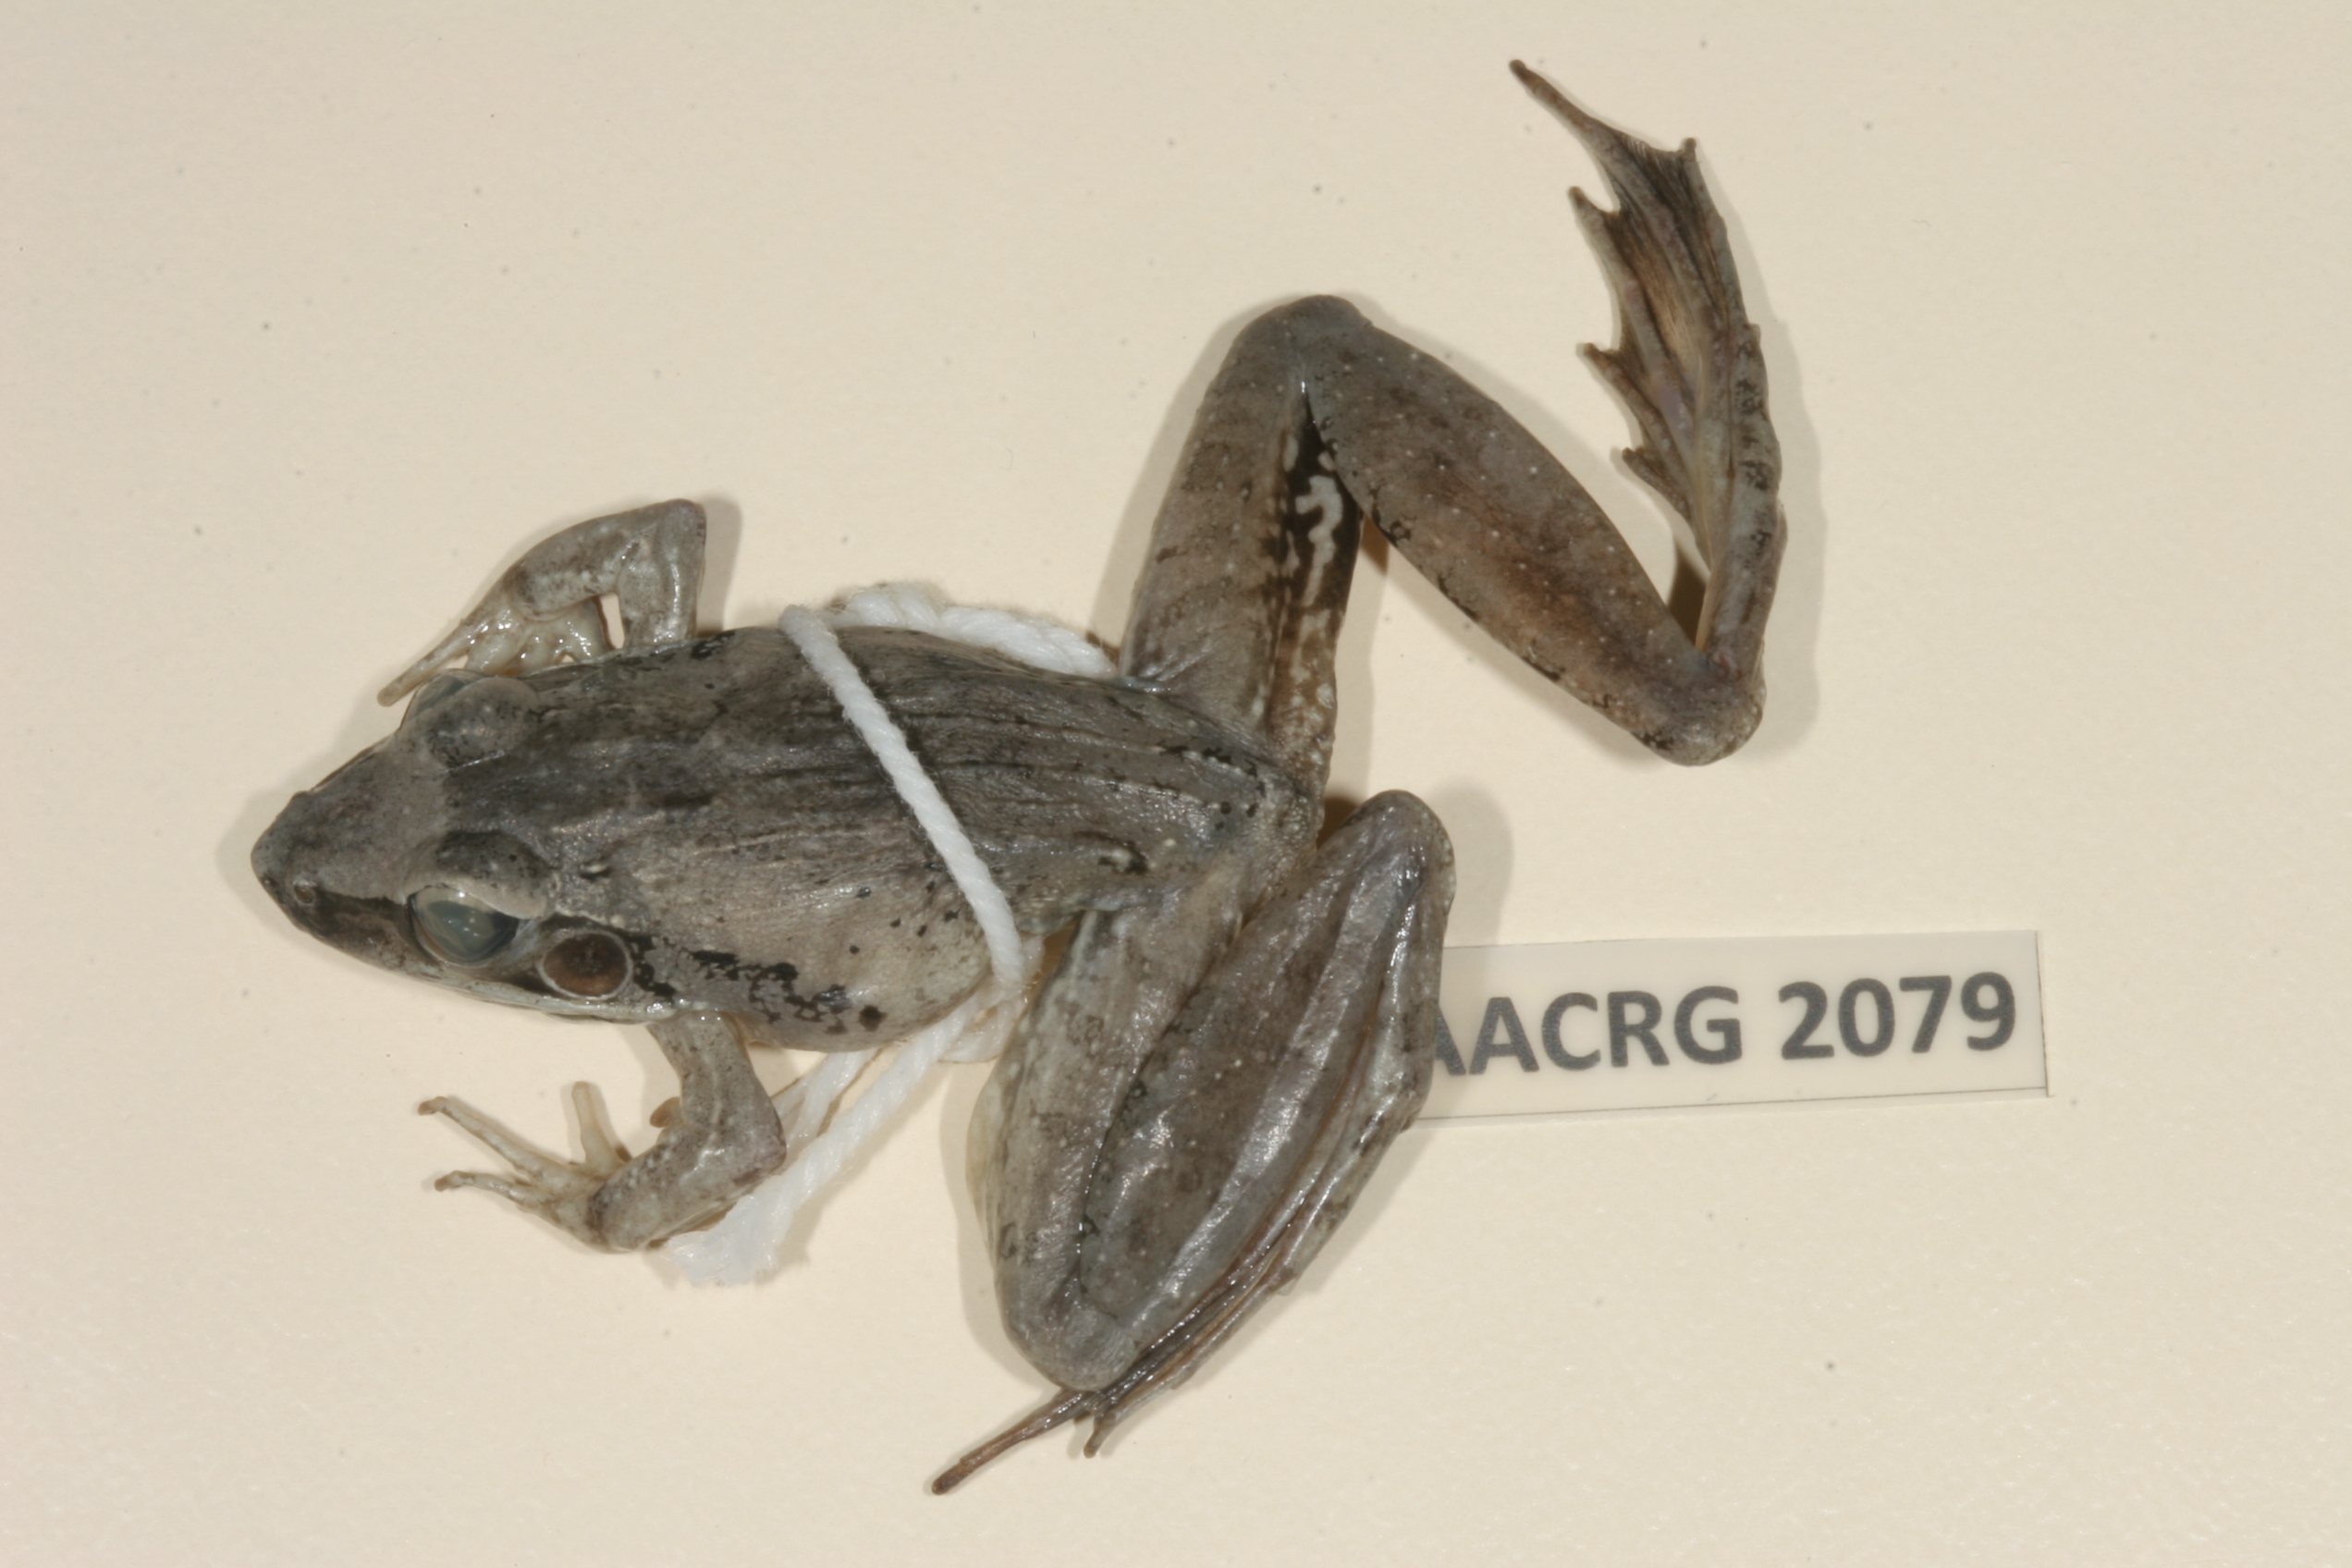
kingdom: Animalia
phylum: Chordata
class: Amphibia
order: Anura
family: Ptychadenidae
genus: Ptychadena
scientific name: Ptychadena anchietae
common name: Anchieta's ridged frog
